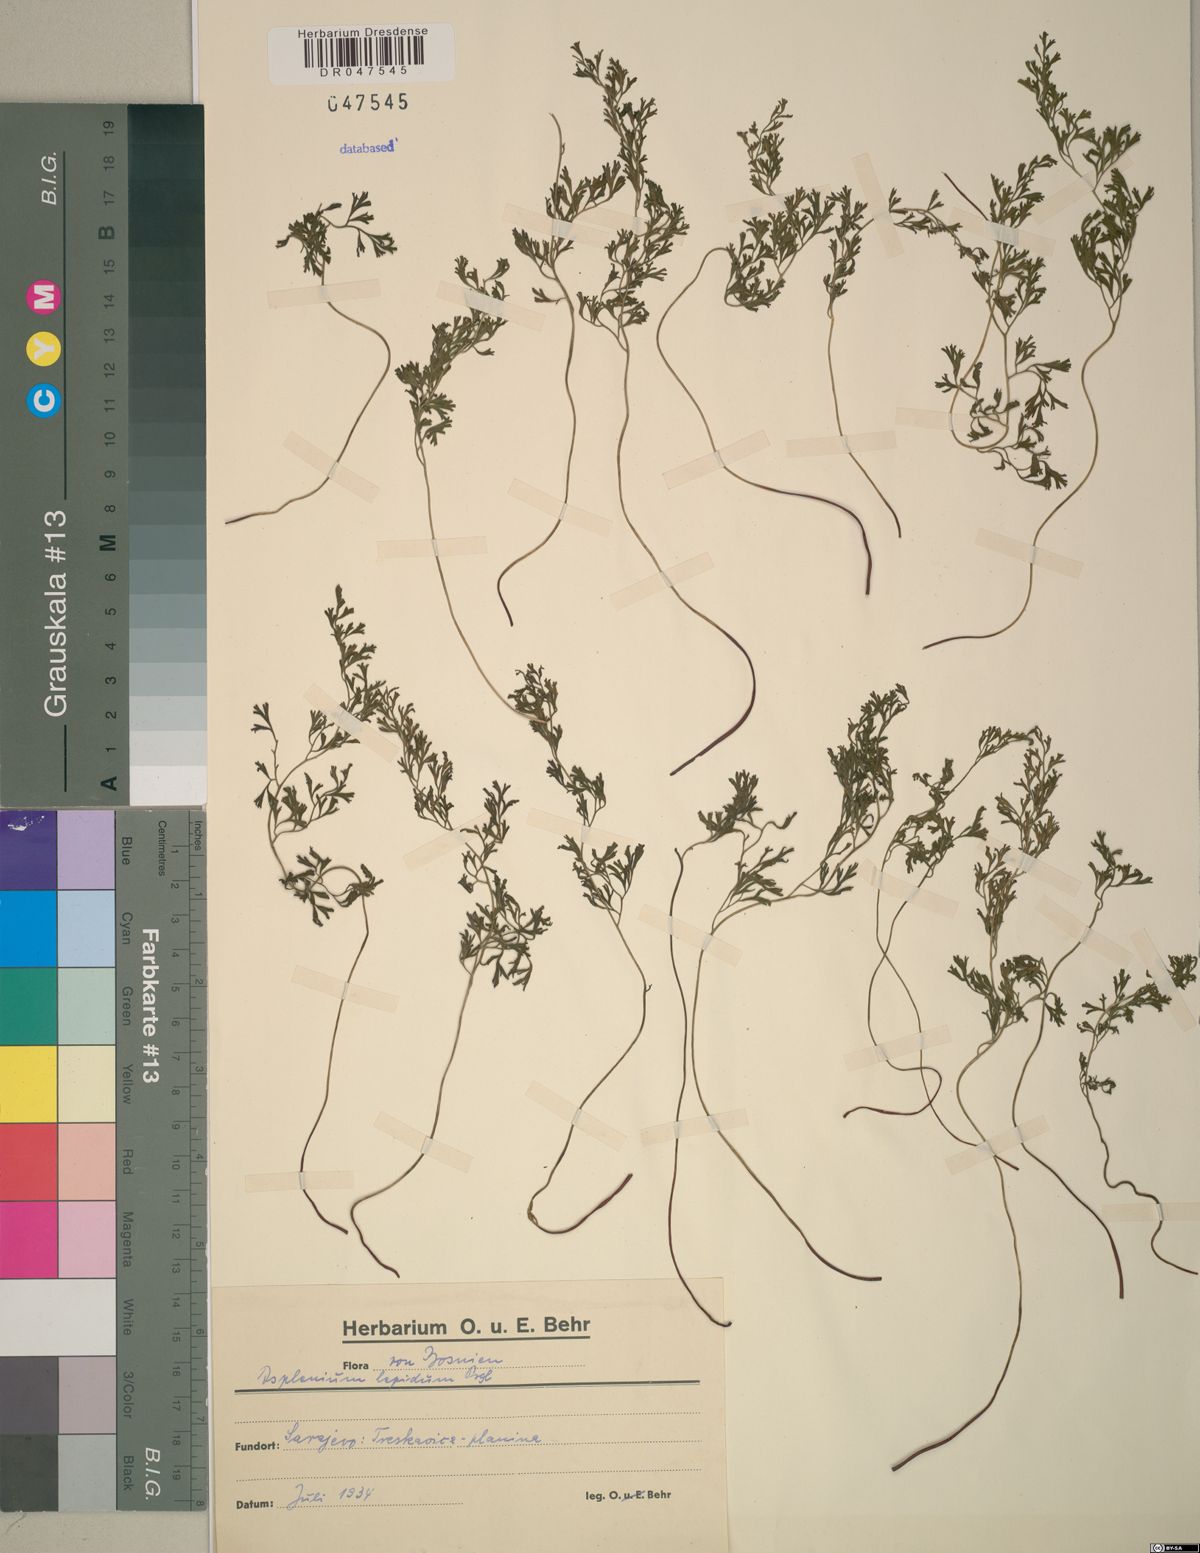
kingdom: Plantae
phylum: Tracheophyta
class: Polypodiopsida
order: Polypodiales
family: Aspleniaceae
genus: Asplenium
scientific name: Asplenium lepidum
